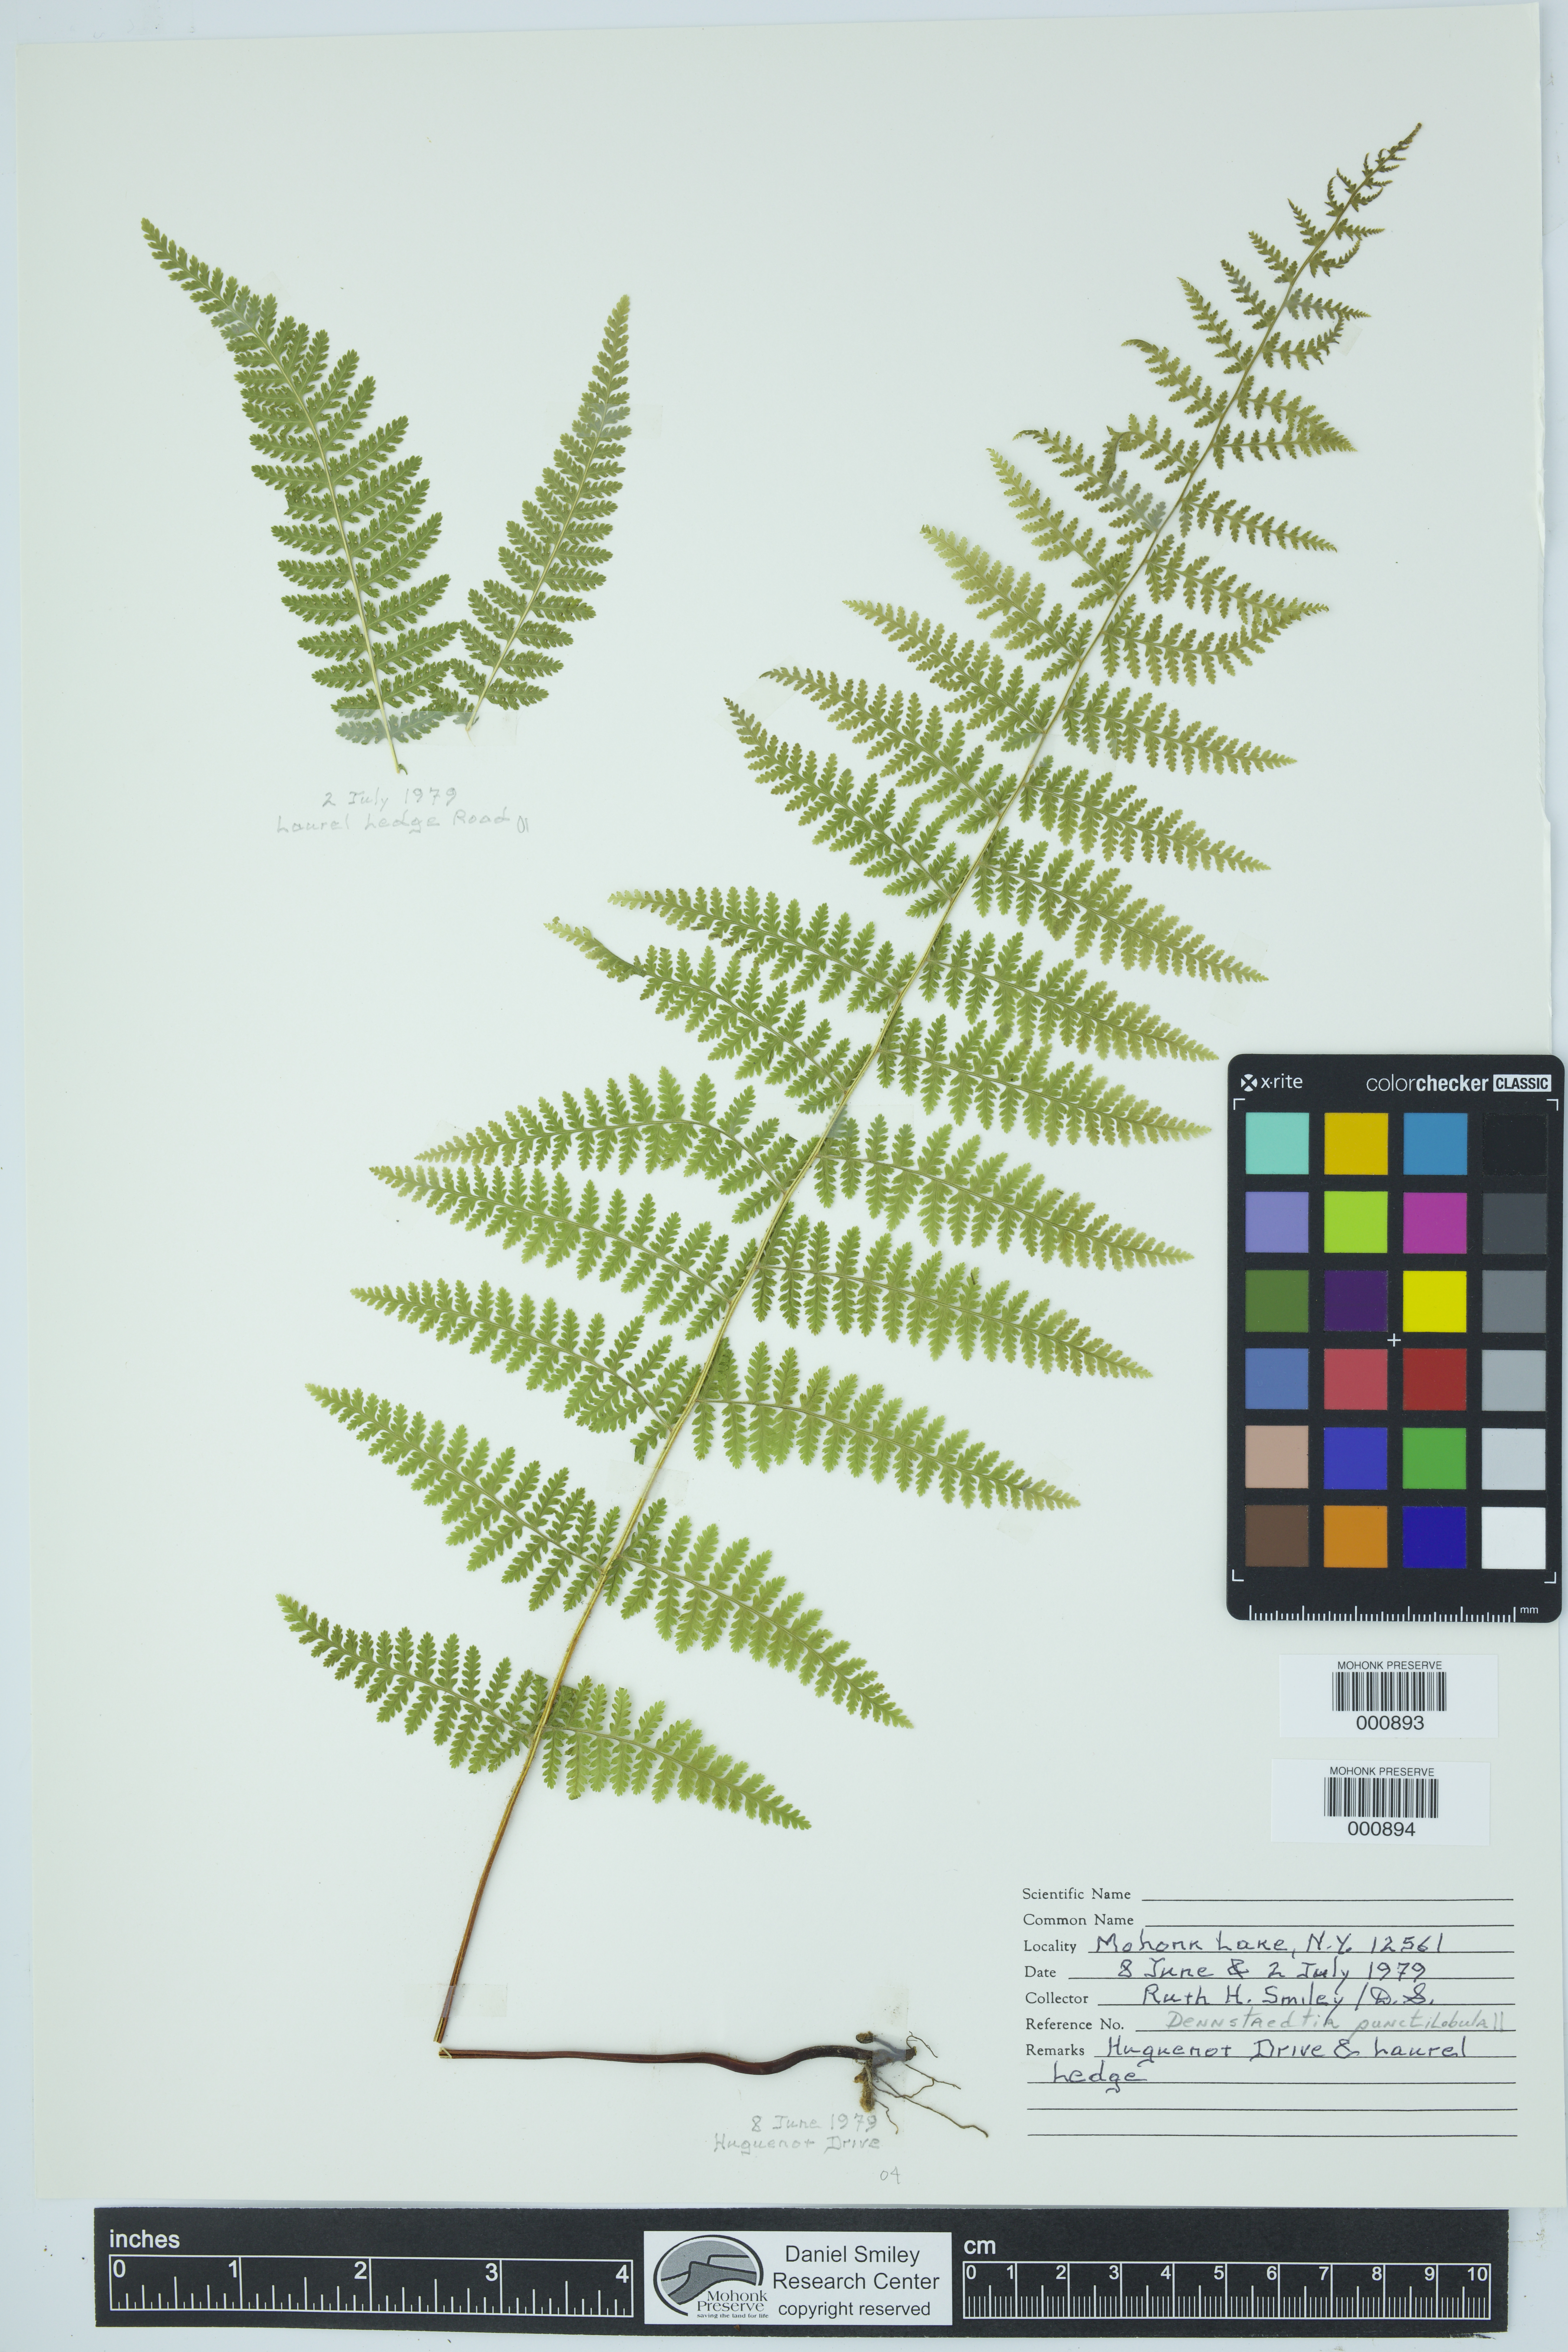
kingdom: Plantae
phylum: Tracheophyta
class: Polypodiopsida
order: Polypodiales
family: Dennstaedtiaceae
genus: Sitobolium
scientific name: Sitobolium punctilobum
